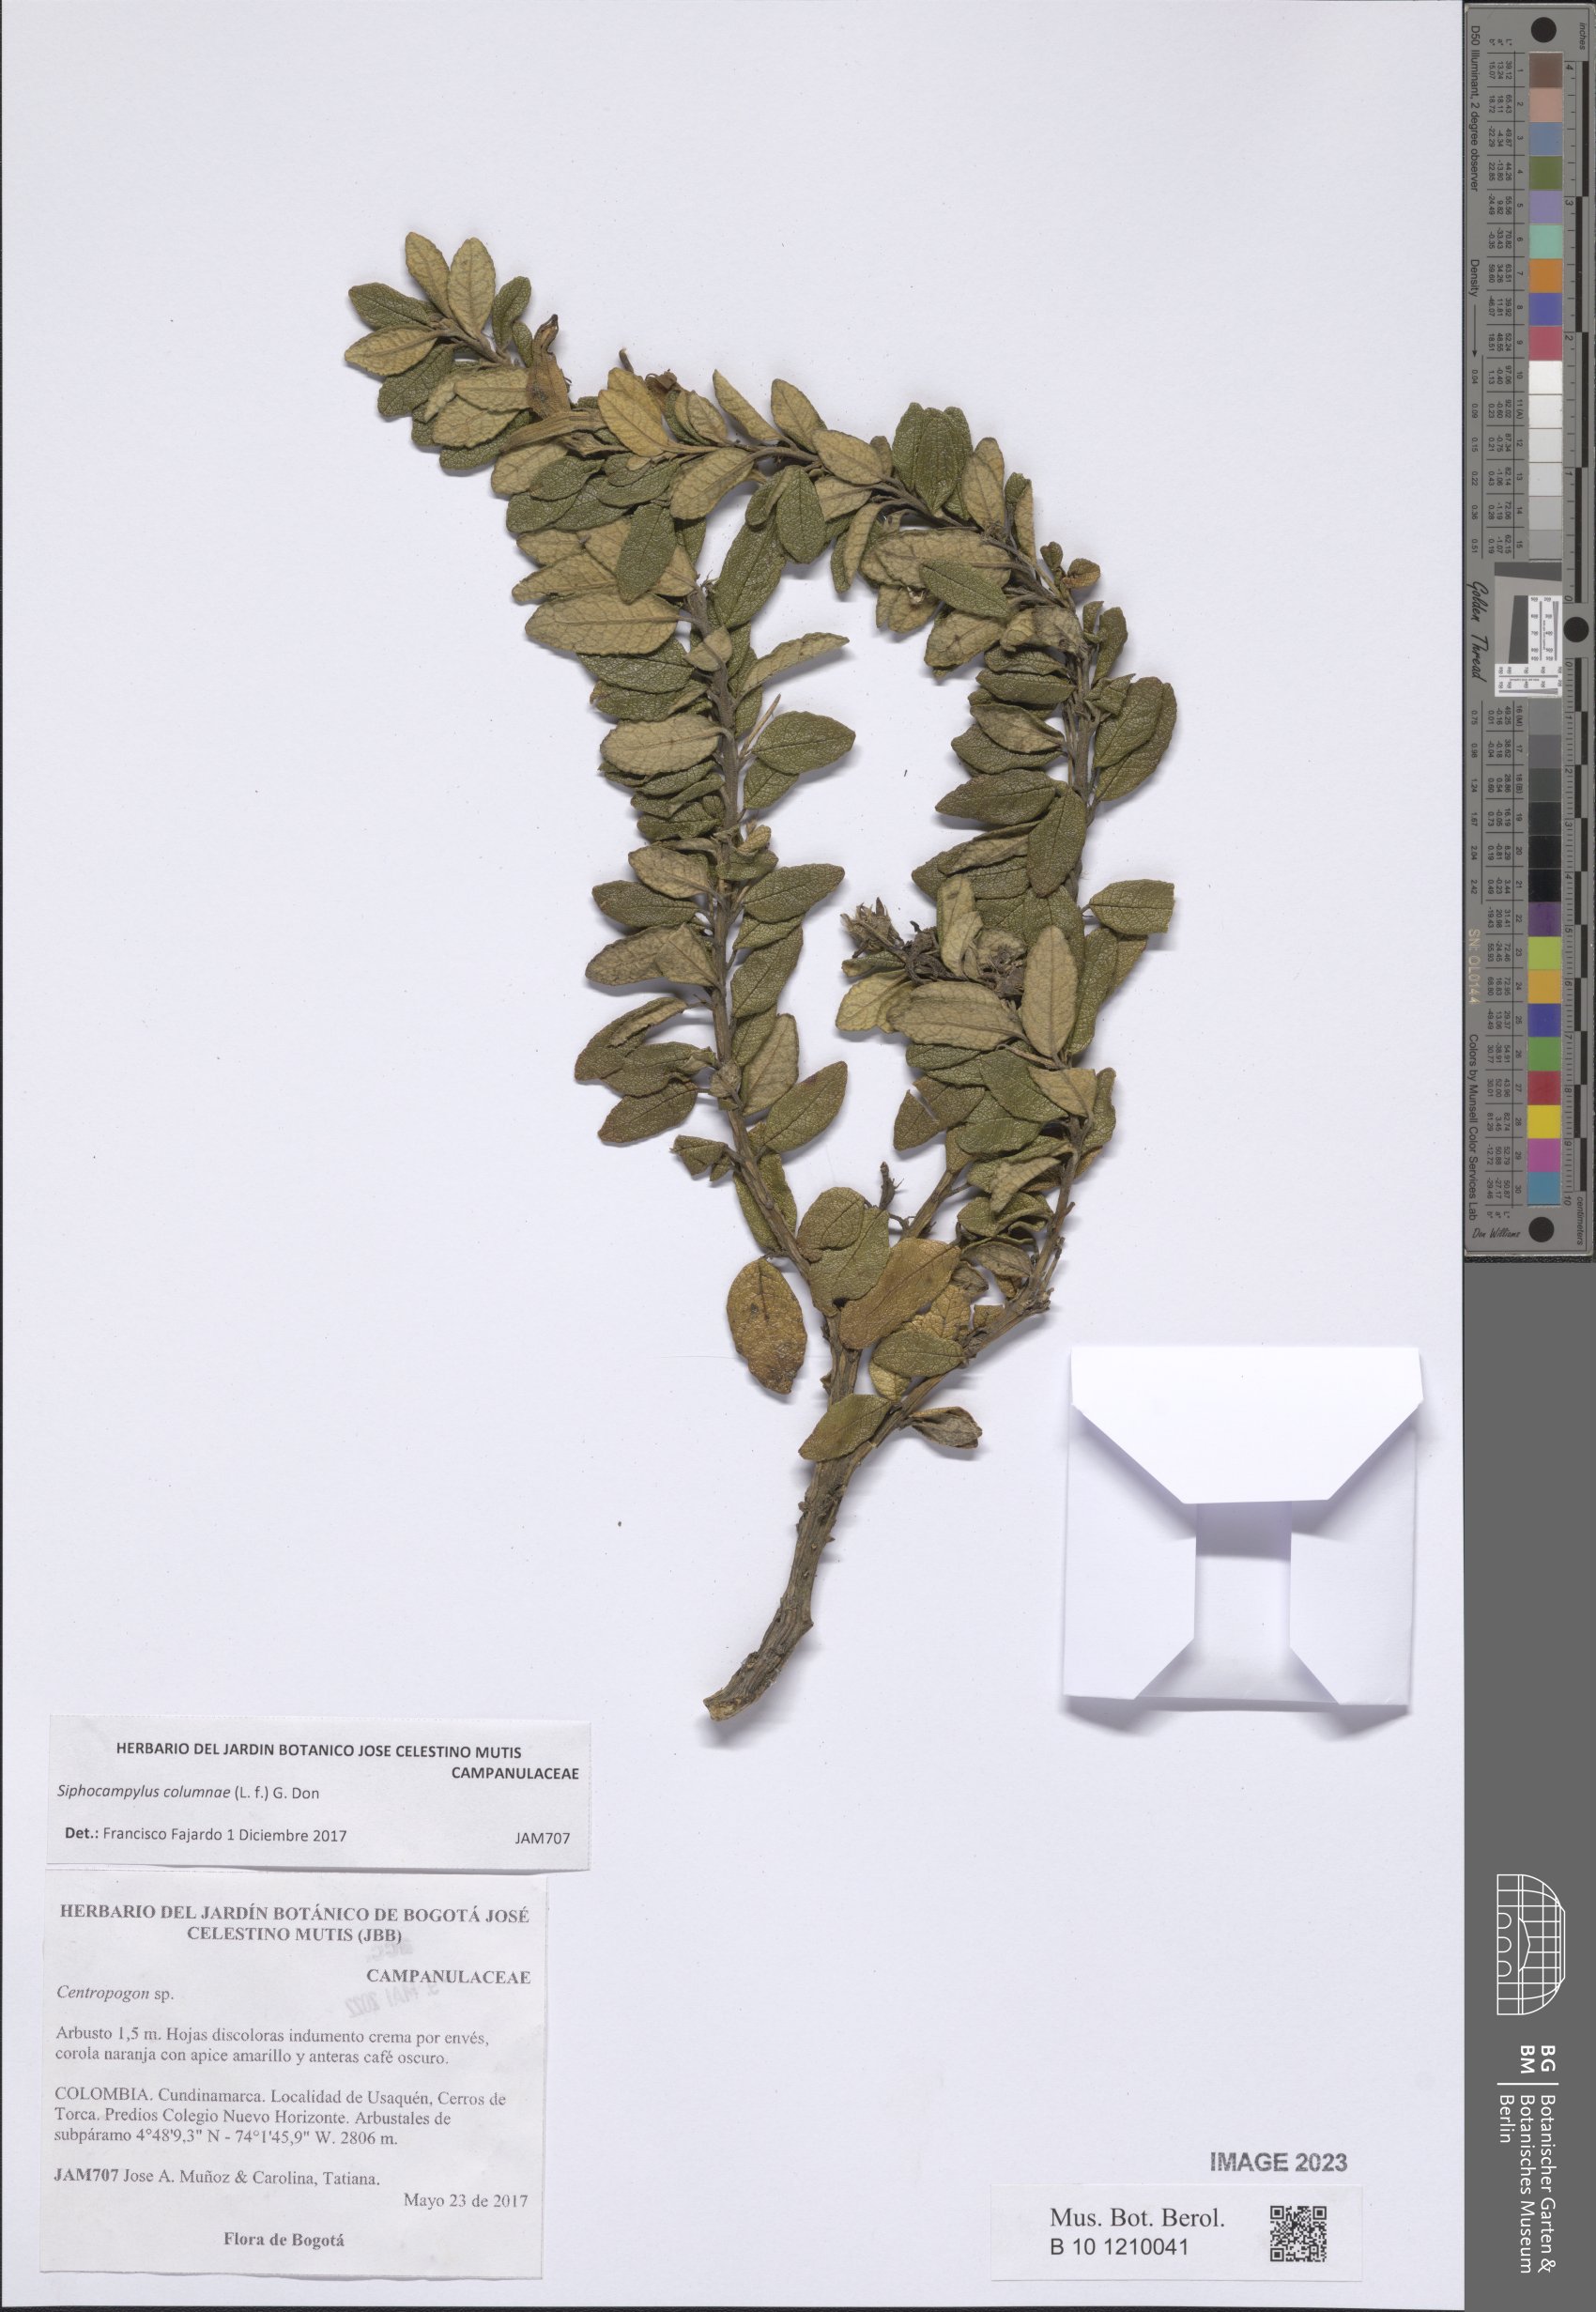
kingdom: Plantae
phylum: Tracheophyta
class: Magnoliopsida
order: Asterales
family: Campanulaceae
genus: Siphocampylus
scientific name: Siphocampylus columnae
